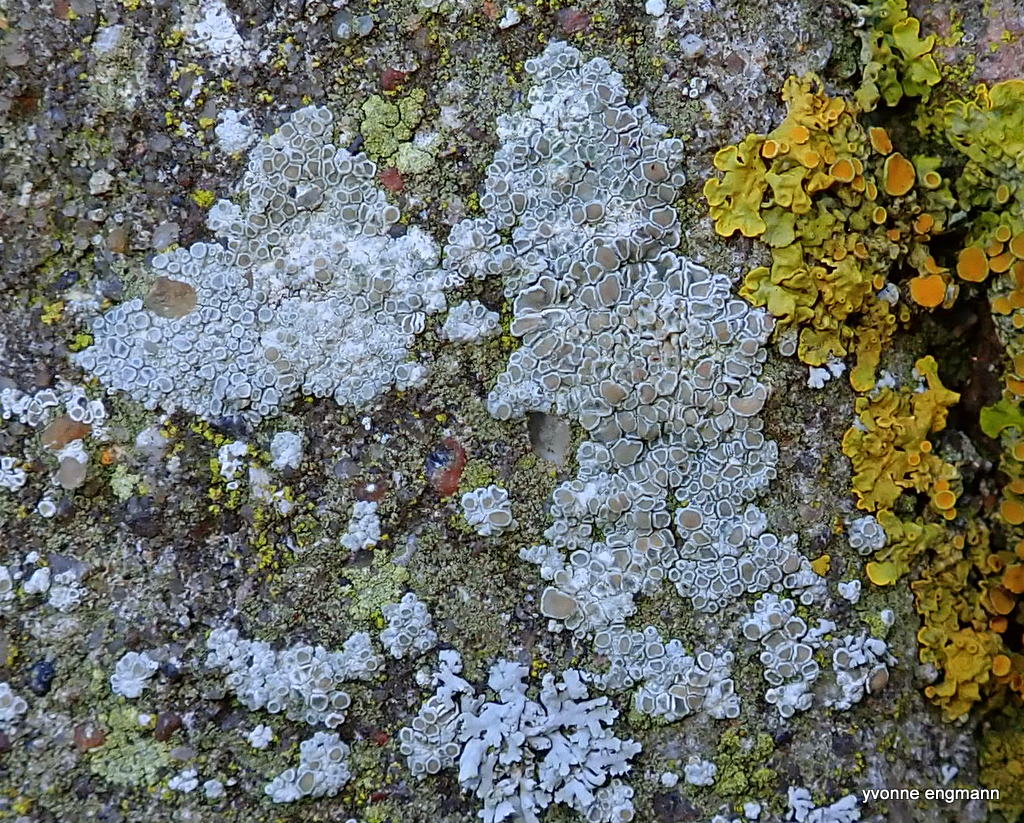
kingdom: Fungi
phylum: Ascomycota
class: Lecanoromycetes
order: Lecanorales
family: Lecanoraceae
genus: Polyozosia
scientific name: Polyozosia albescens
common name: cement-kantskivelav
